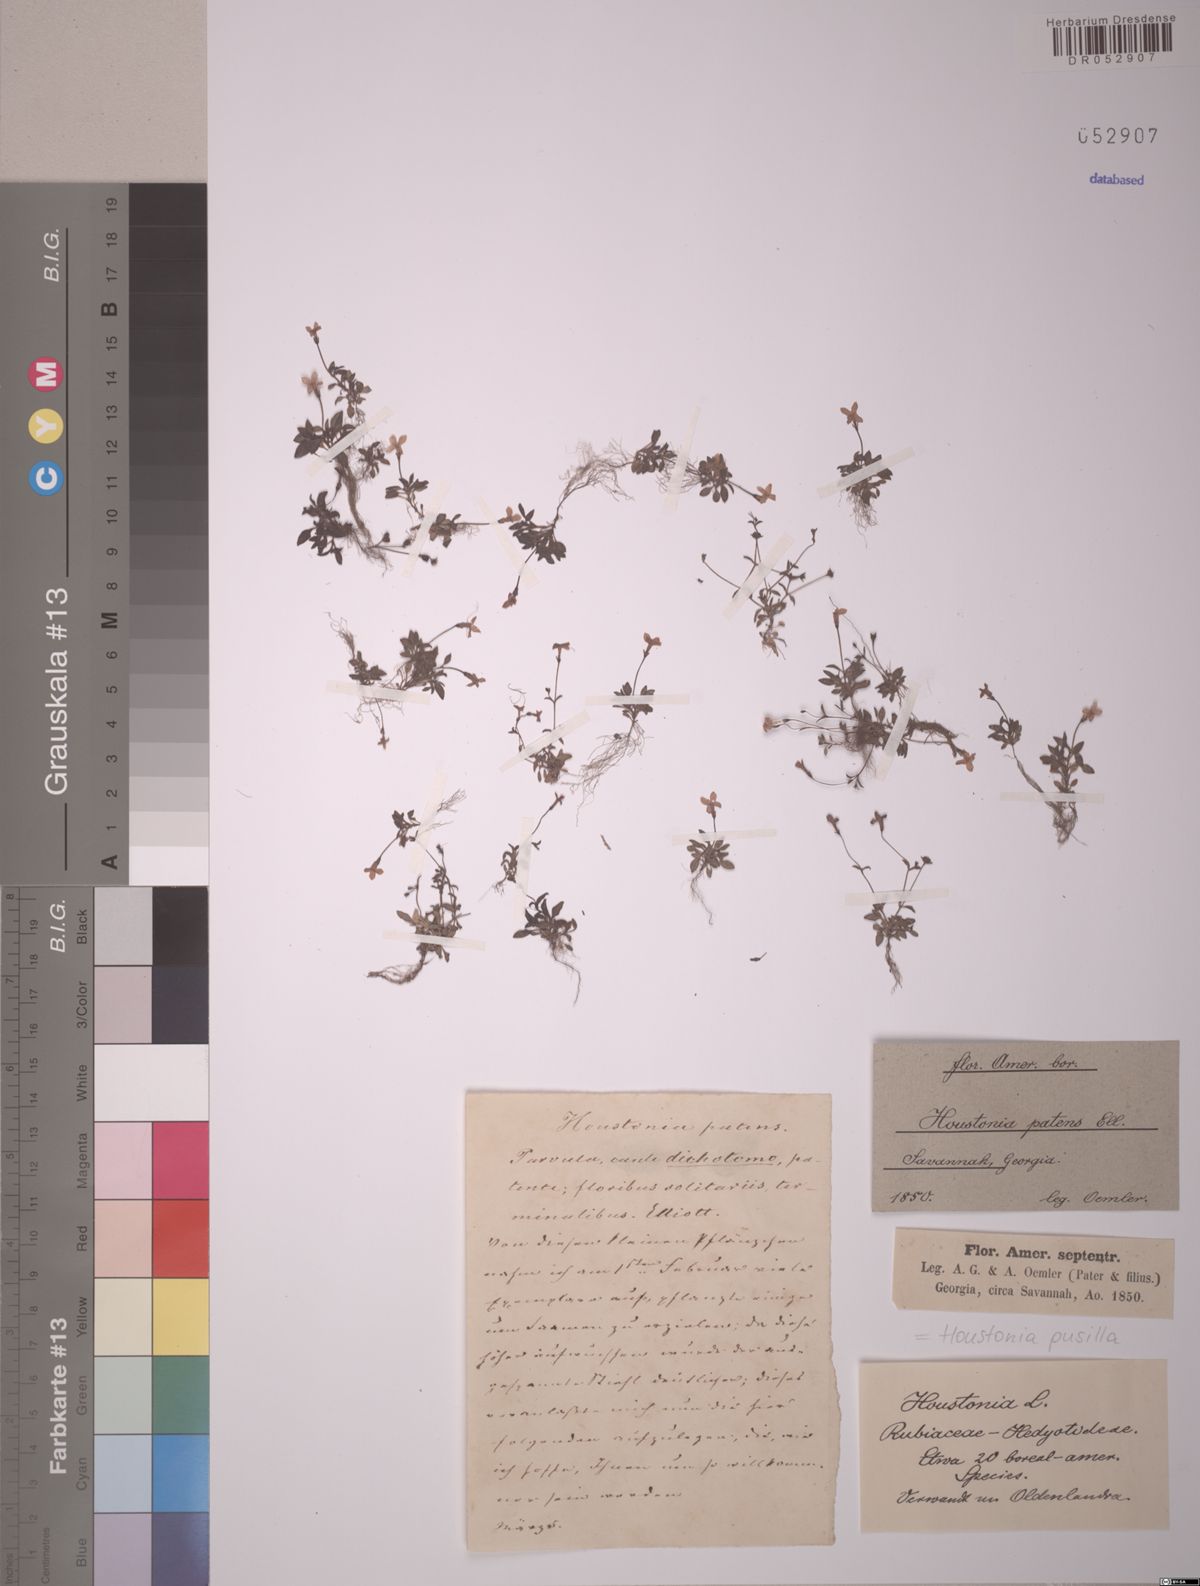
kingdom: Plantae
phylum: Tracheophyta
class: Magnoliopsida
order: Gentianales
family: Rubiaceae
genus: Houstonia
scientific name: Houstonia pusilla
